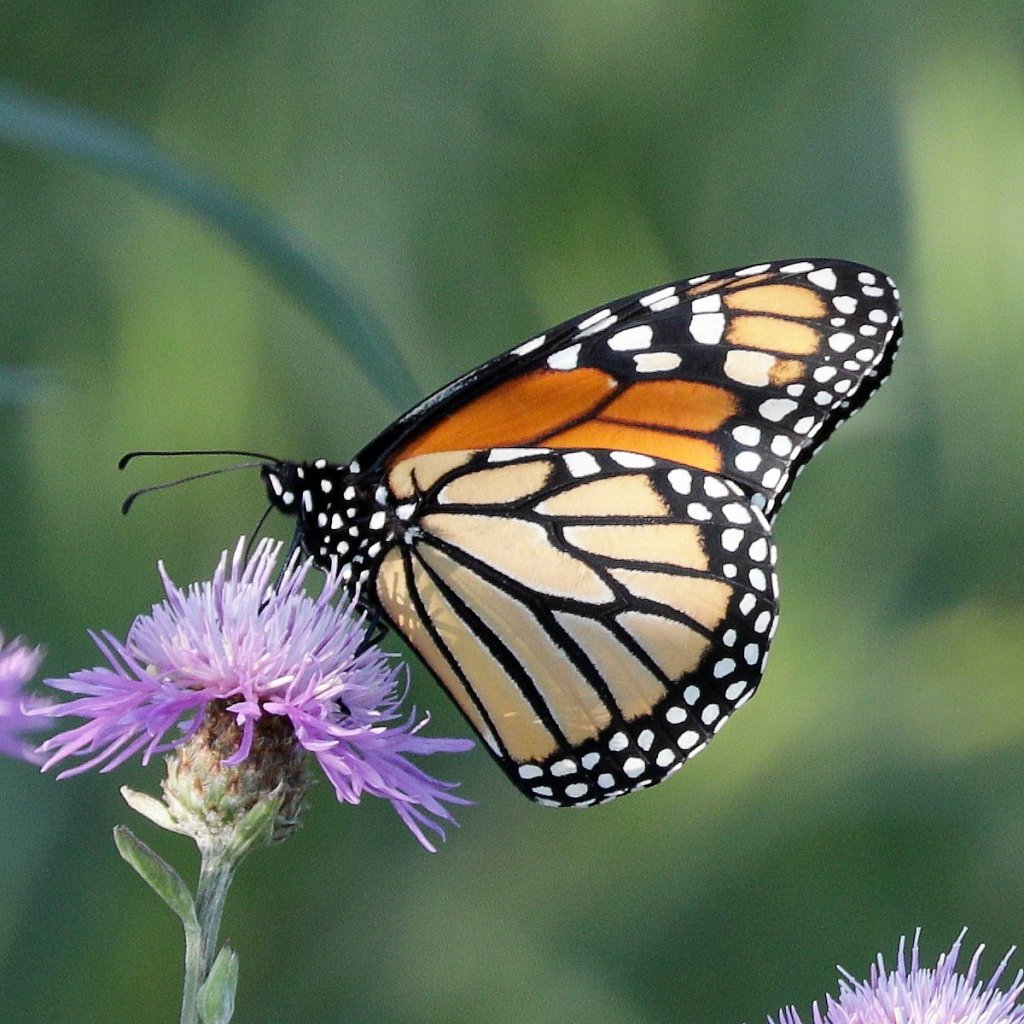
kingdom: Animalia
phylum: Arthropoda
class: Insecta
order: Lepidoptera
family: Nymphalidae
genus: Danaus
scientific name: Danaus plexippus
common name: Monarch
